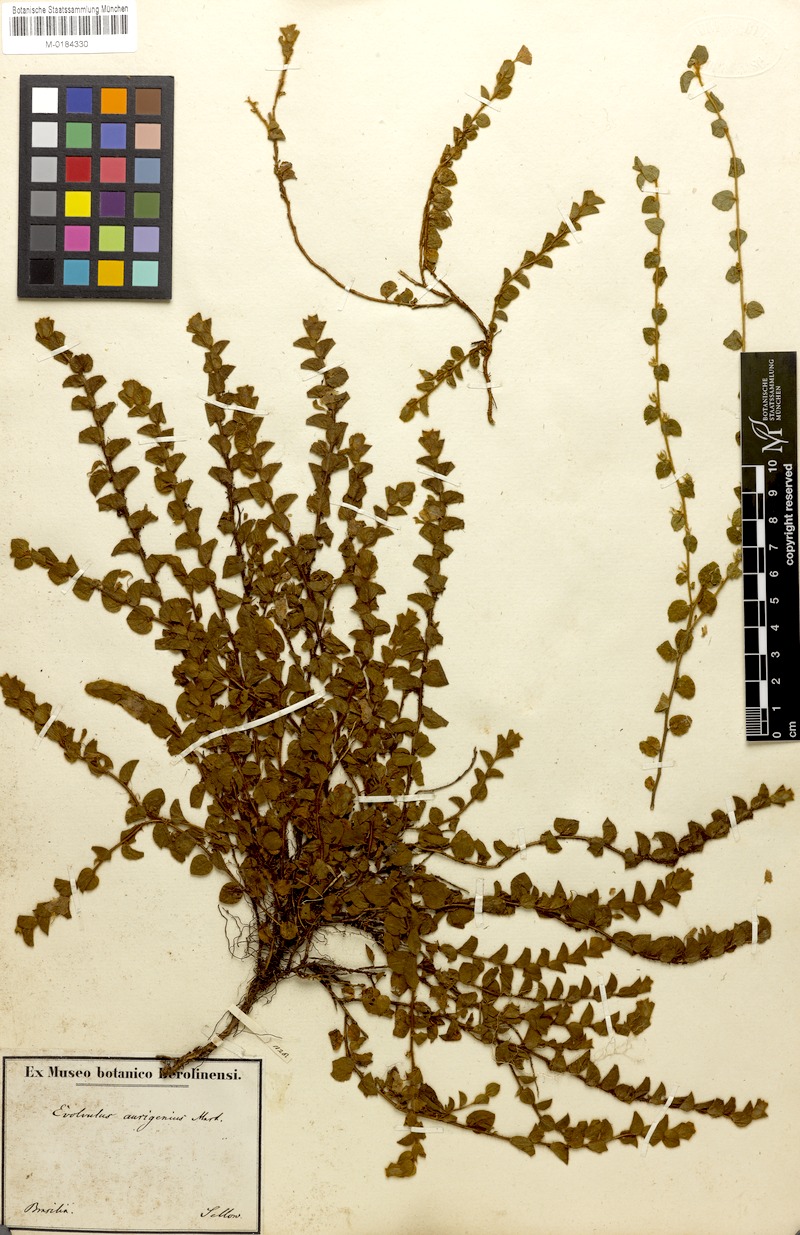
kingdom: Plantae
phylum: Tracheophyta
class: Magnoliopsida
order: Solanales
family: Convolvulaceae
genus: Evolvulus
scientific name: Evolvulus aurigenius
